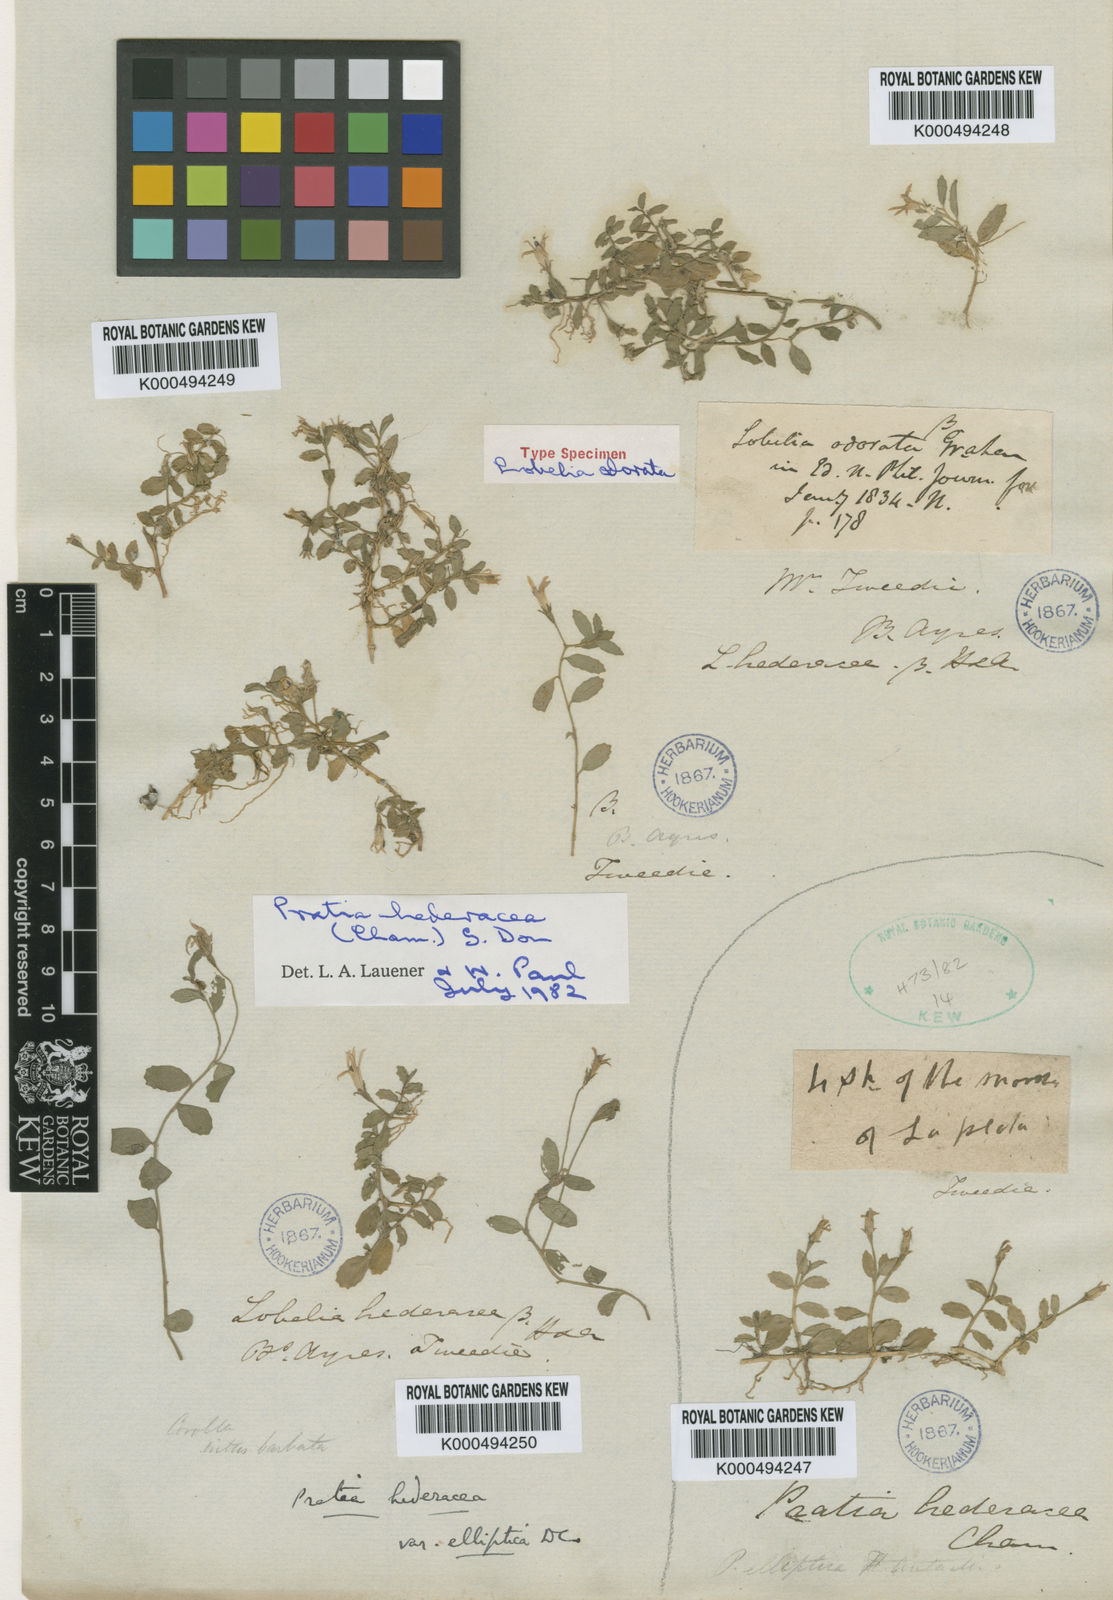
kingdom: Plantae
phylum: Tracheophyta
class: Magnoliopsida
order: Asterales
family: Campanulaceae
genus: Lobelia
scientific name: Lobelia hederacea
